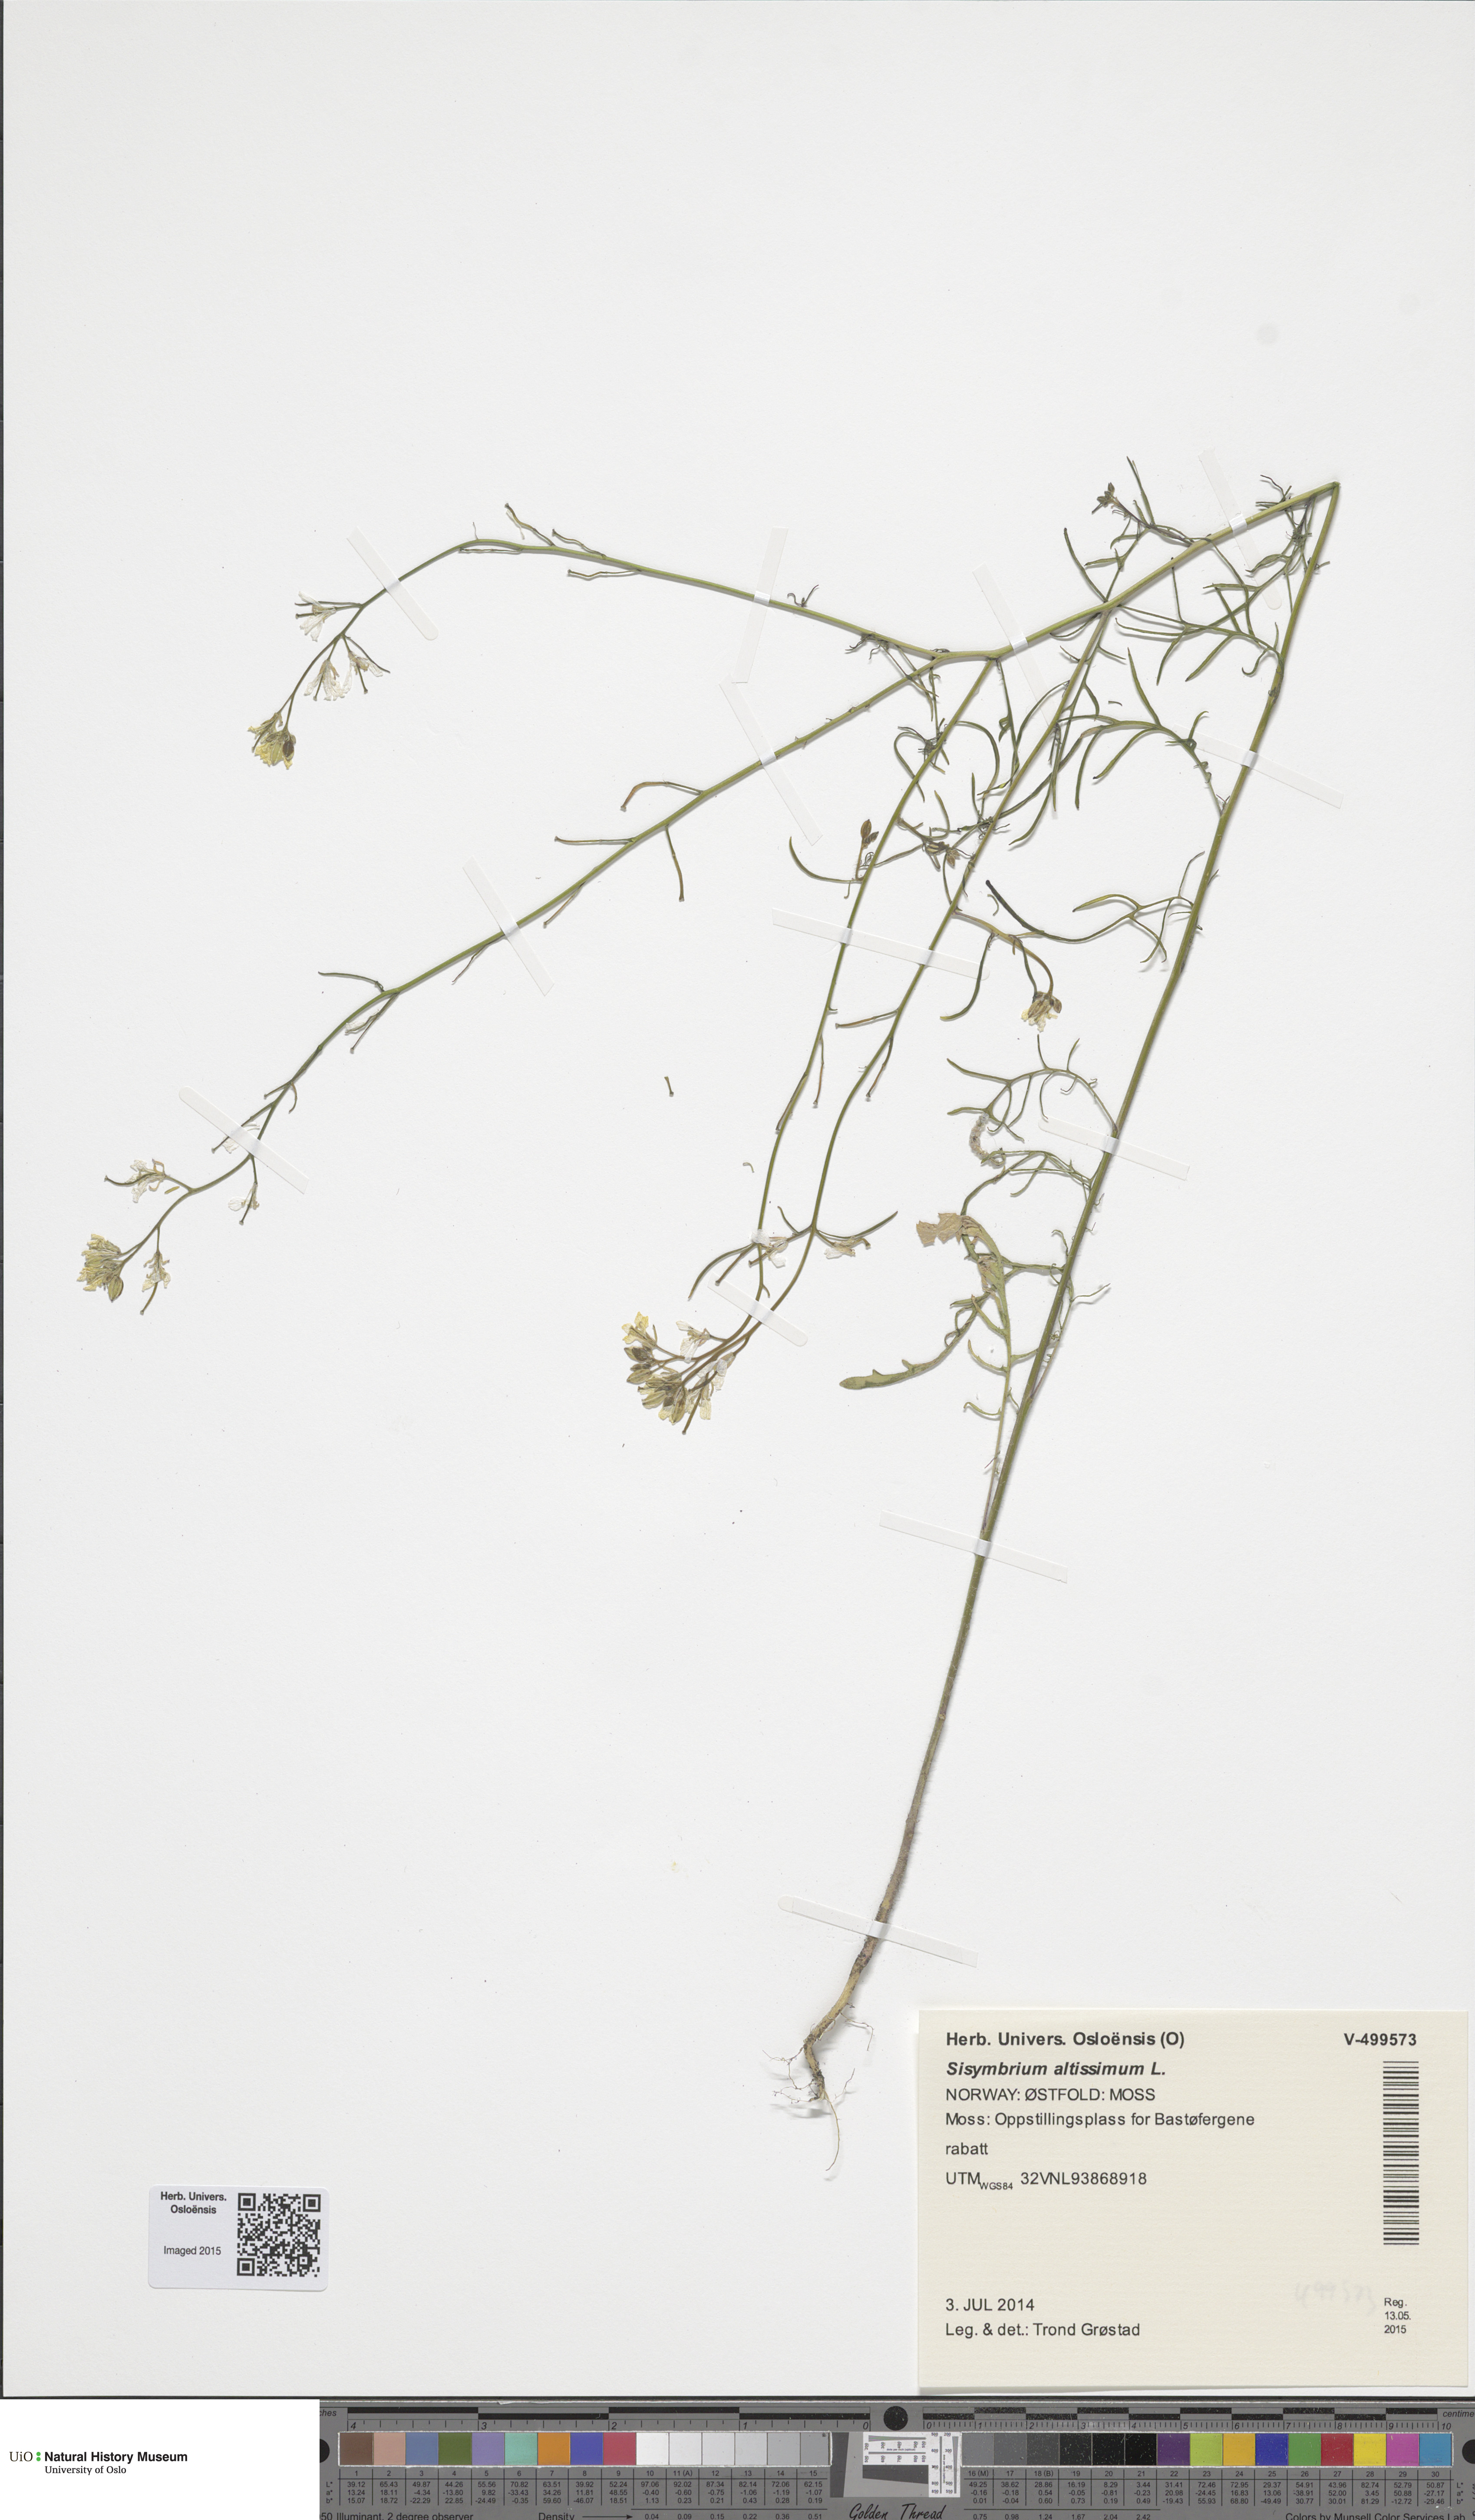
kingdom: Plantae
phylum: Tracheophyta
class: Magnoliopsida
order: Brassicales
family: Brassicaceae
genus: Sisymbrium
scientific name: Sisymbrium altissimum
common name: Tall rocket
